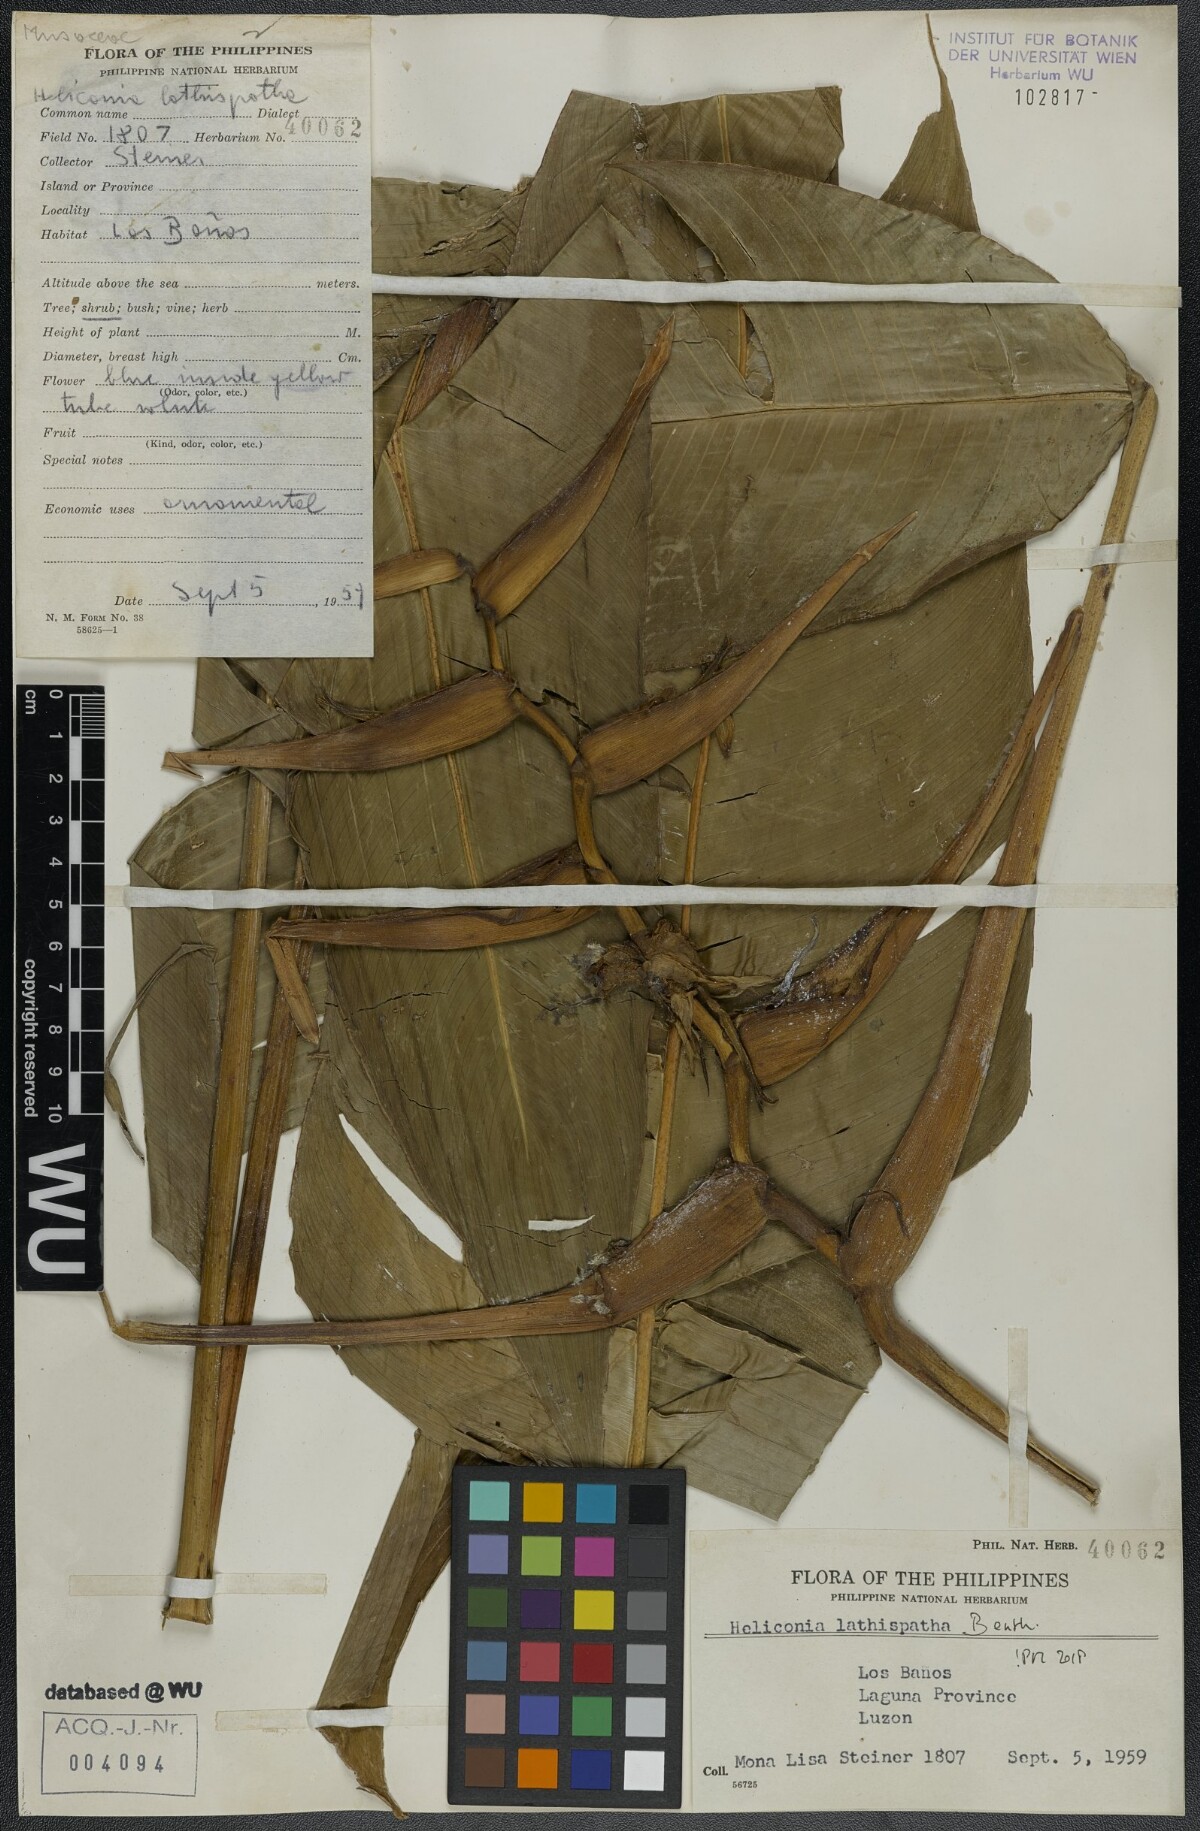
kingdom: Plantae
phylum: Tracheophyta
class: Liliopsida
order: Zingiberales
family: Heliconiaceae
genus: Heliconia
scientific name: Heliconia latispatha
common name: Expanded lobsterclaw
